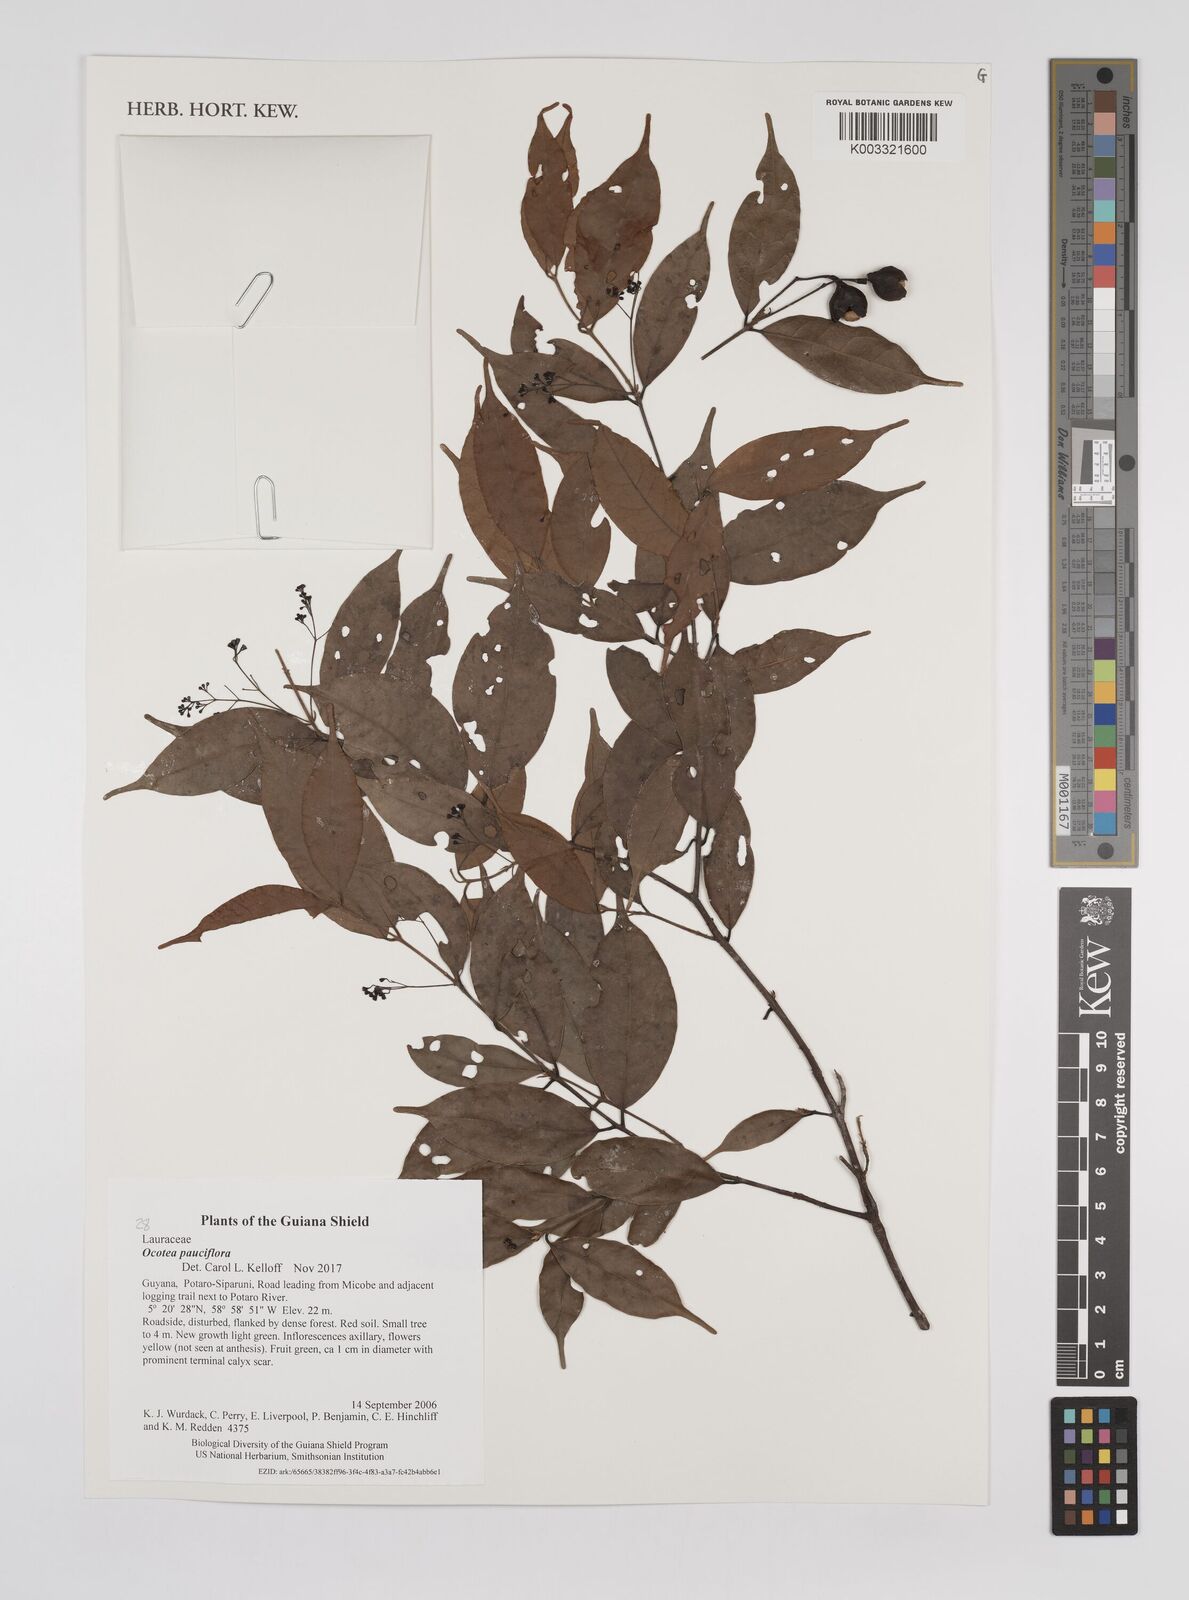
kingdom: Plantae
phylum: Tracheophyta
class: Magnoliopsida
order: Laurales
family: Lauraceae
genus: Ocotea
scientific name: Ocotea pauciflora
